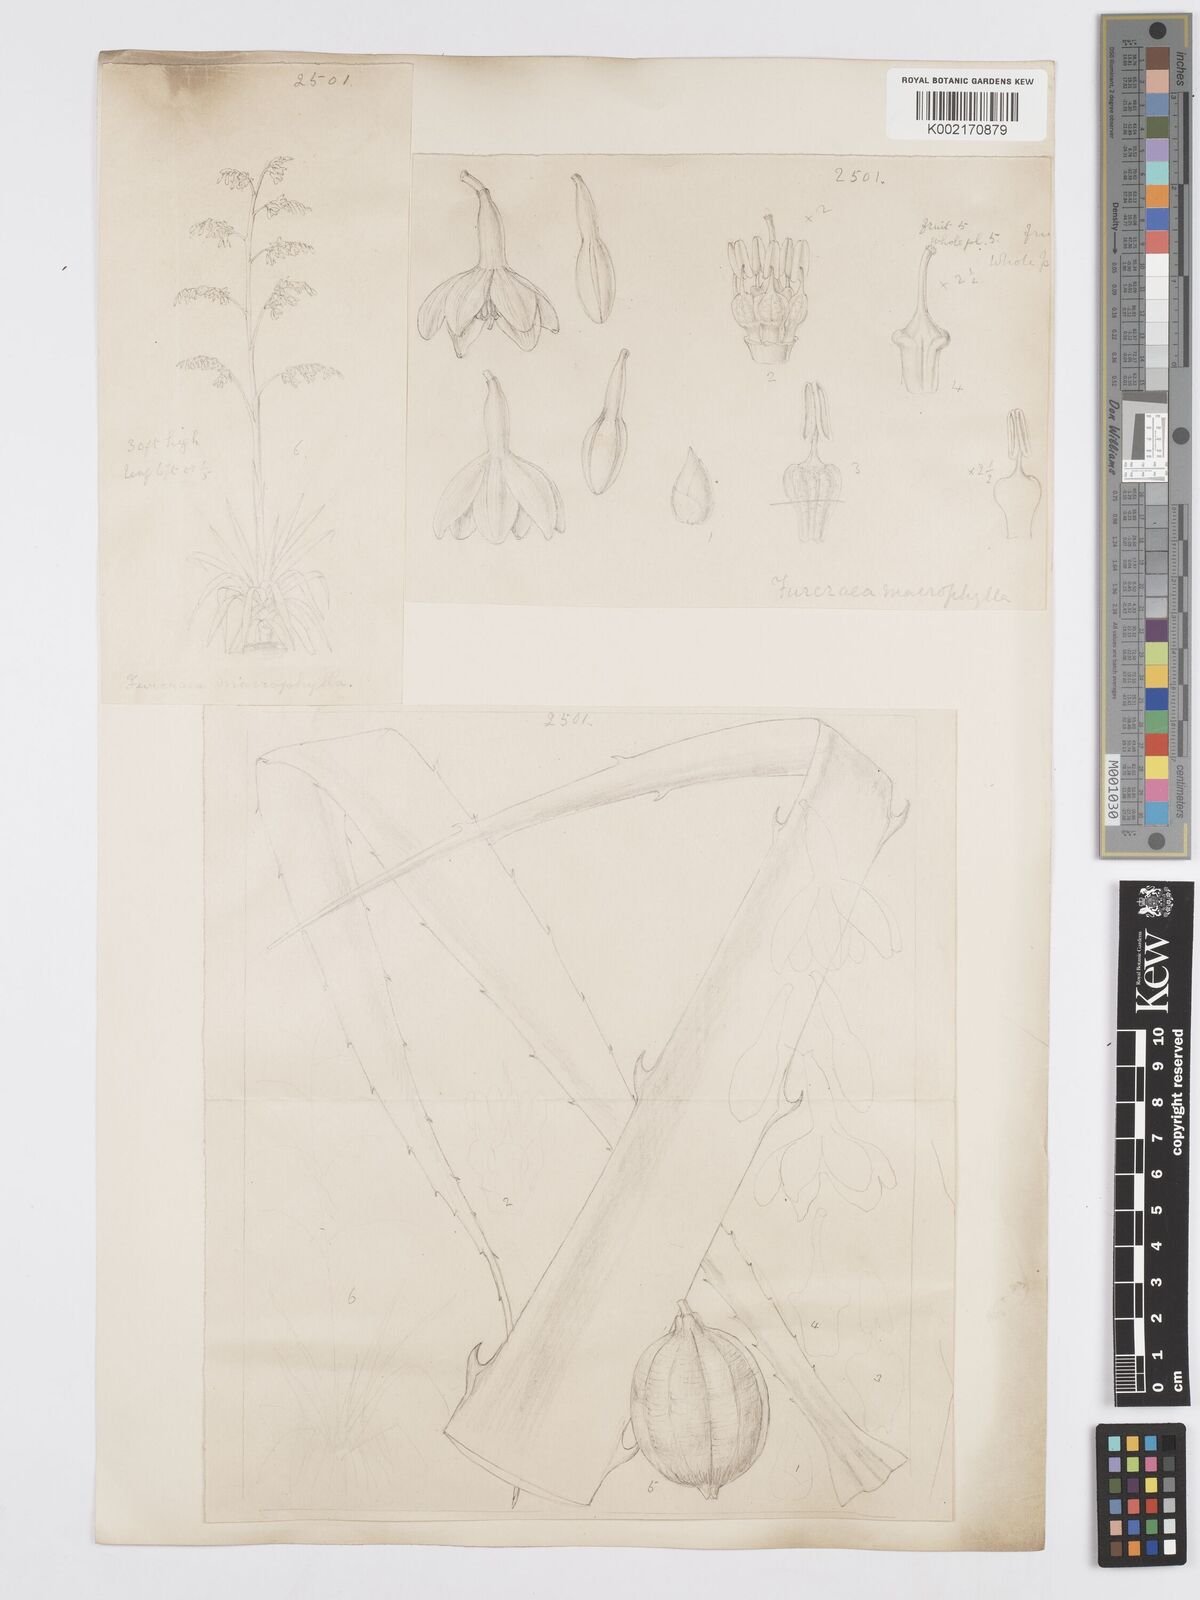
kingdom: Plantae
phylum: Tracheophyta
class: Liliopsida
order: Asparagales
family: Asparagaceae
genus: Furcraea
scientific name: Furcraea hexapetala
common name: Cuban-hemp
